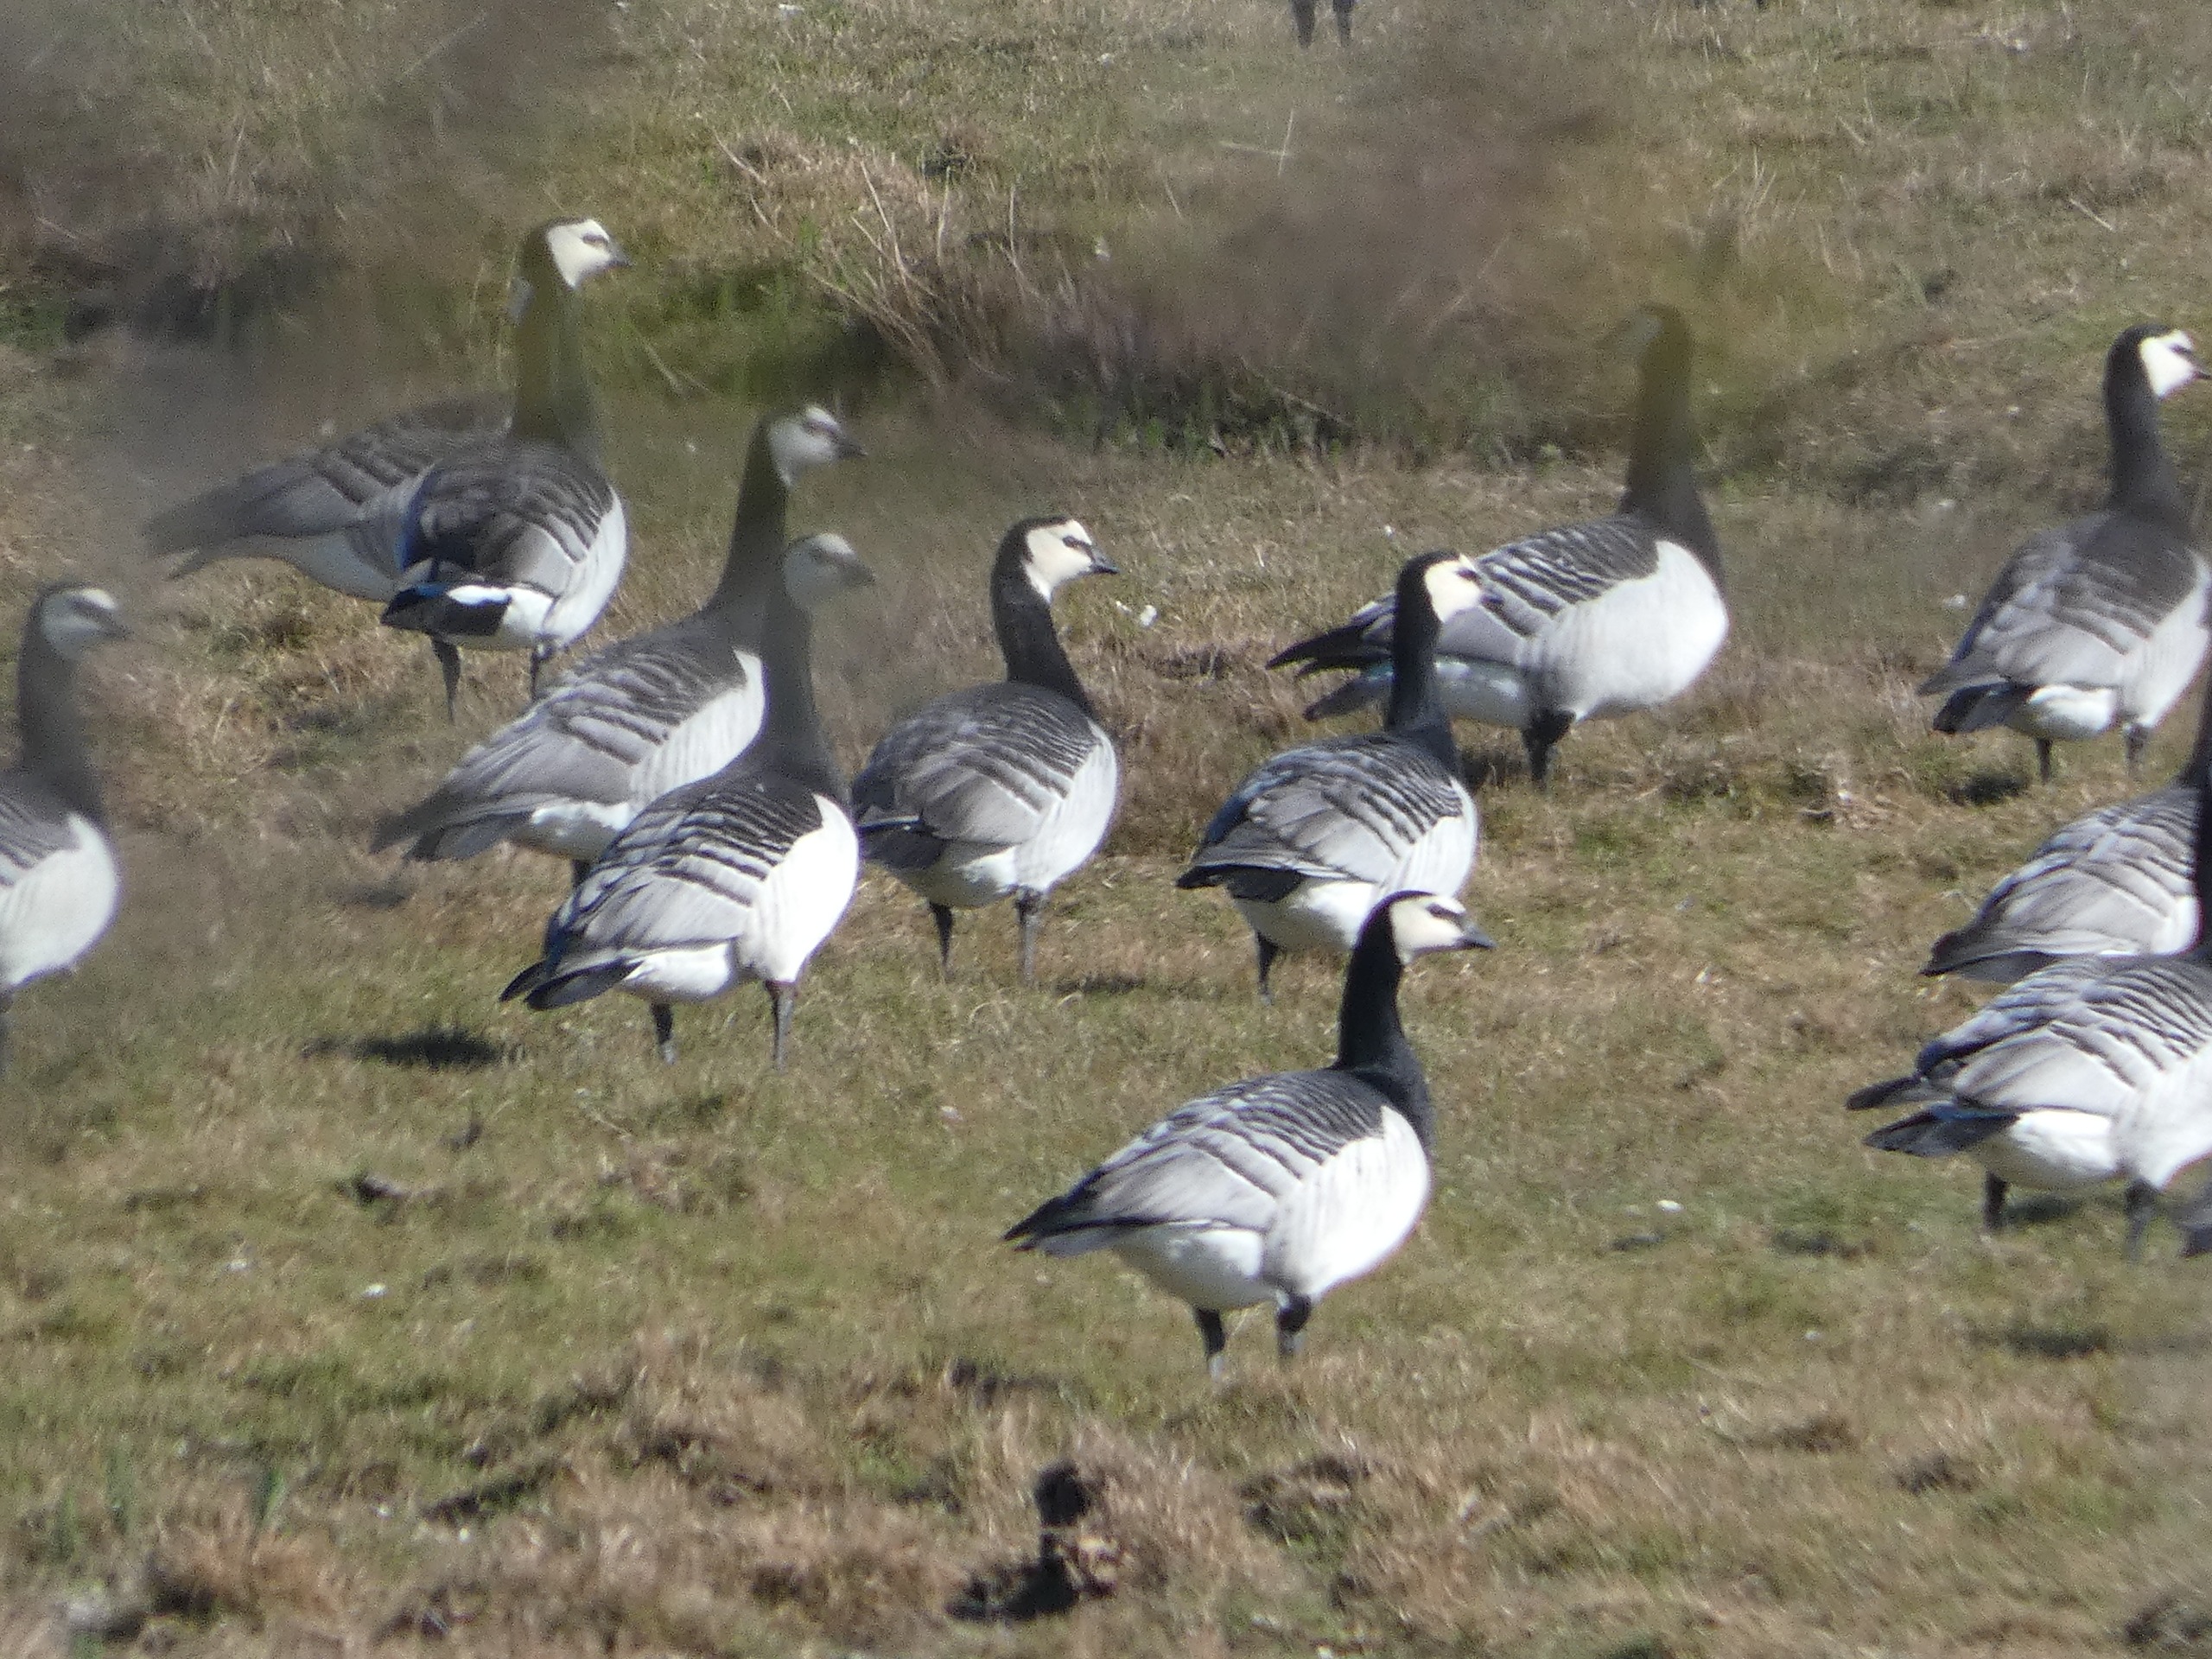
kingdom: Animalia
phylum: Chordata
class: Aves
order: Anseriformes
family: Anatidae
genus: Branta
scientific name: Branta leucopsis
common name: Bramgås
